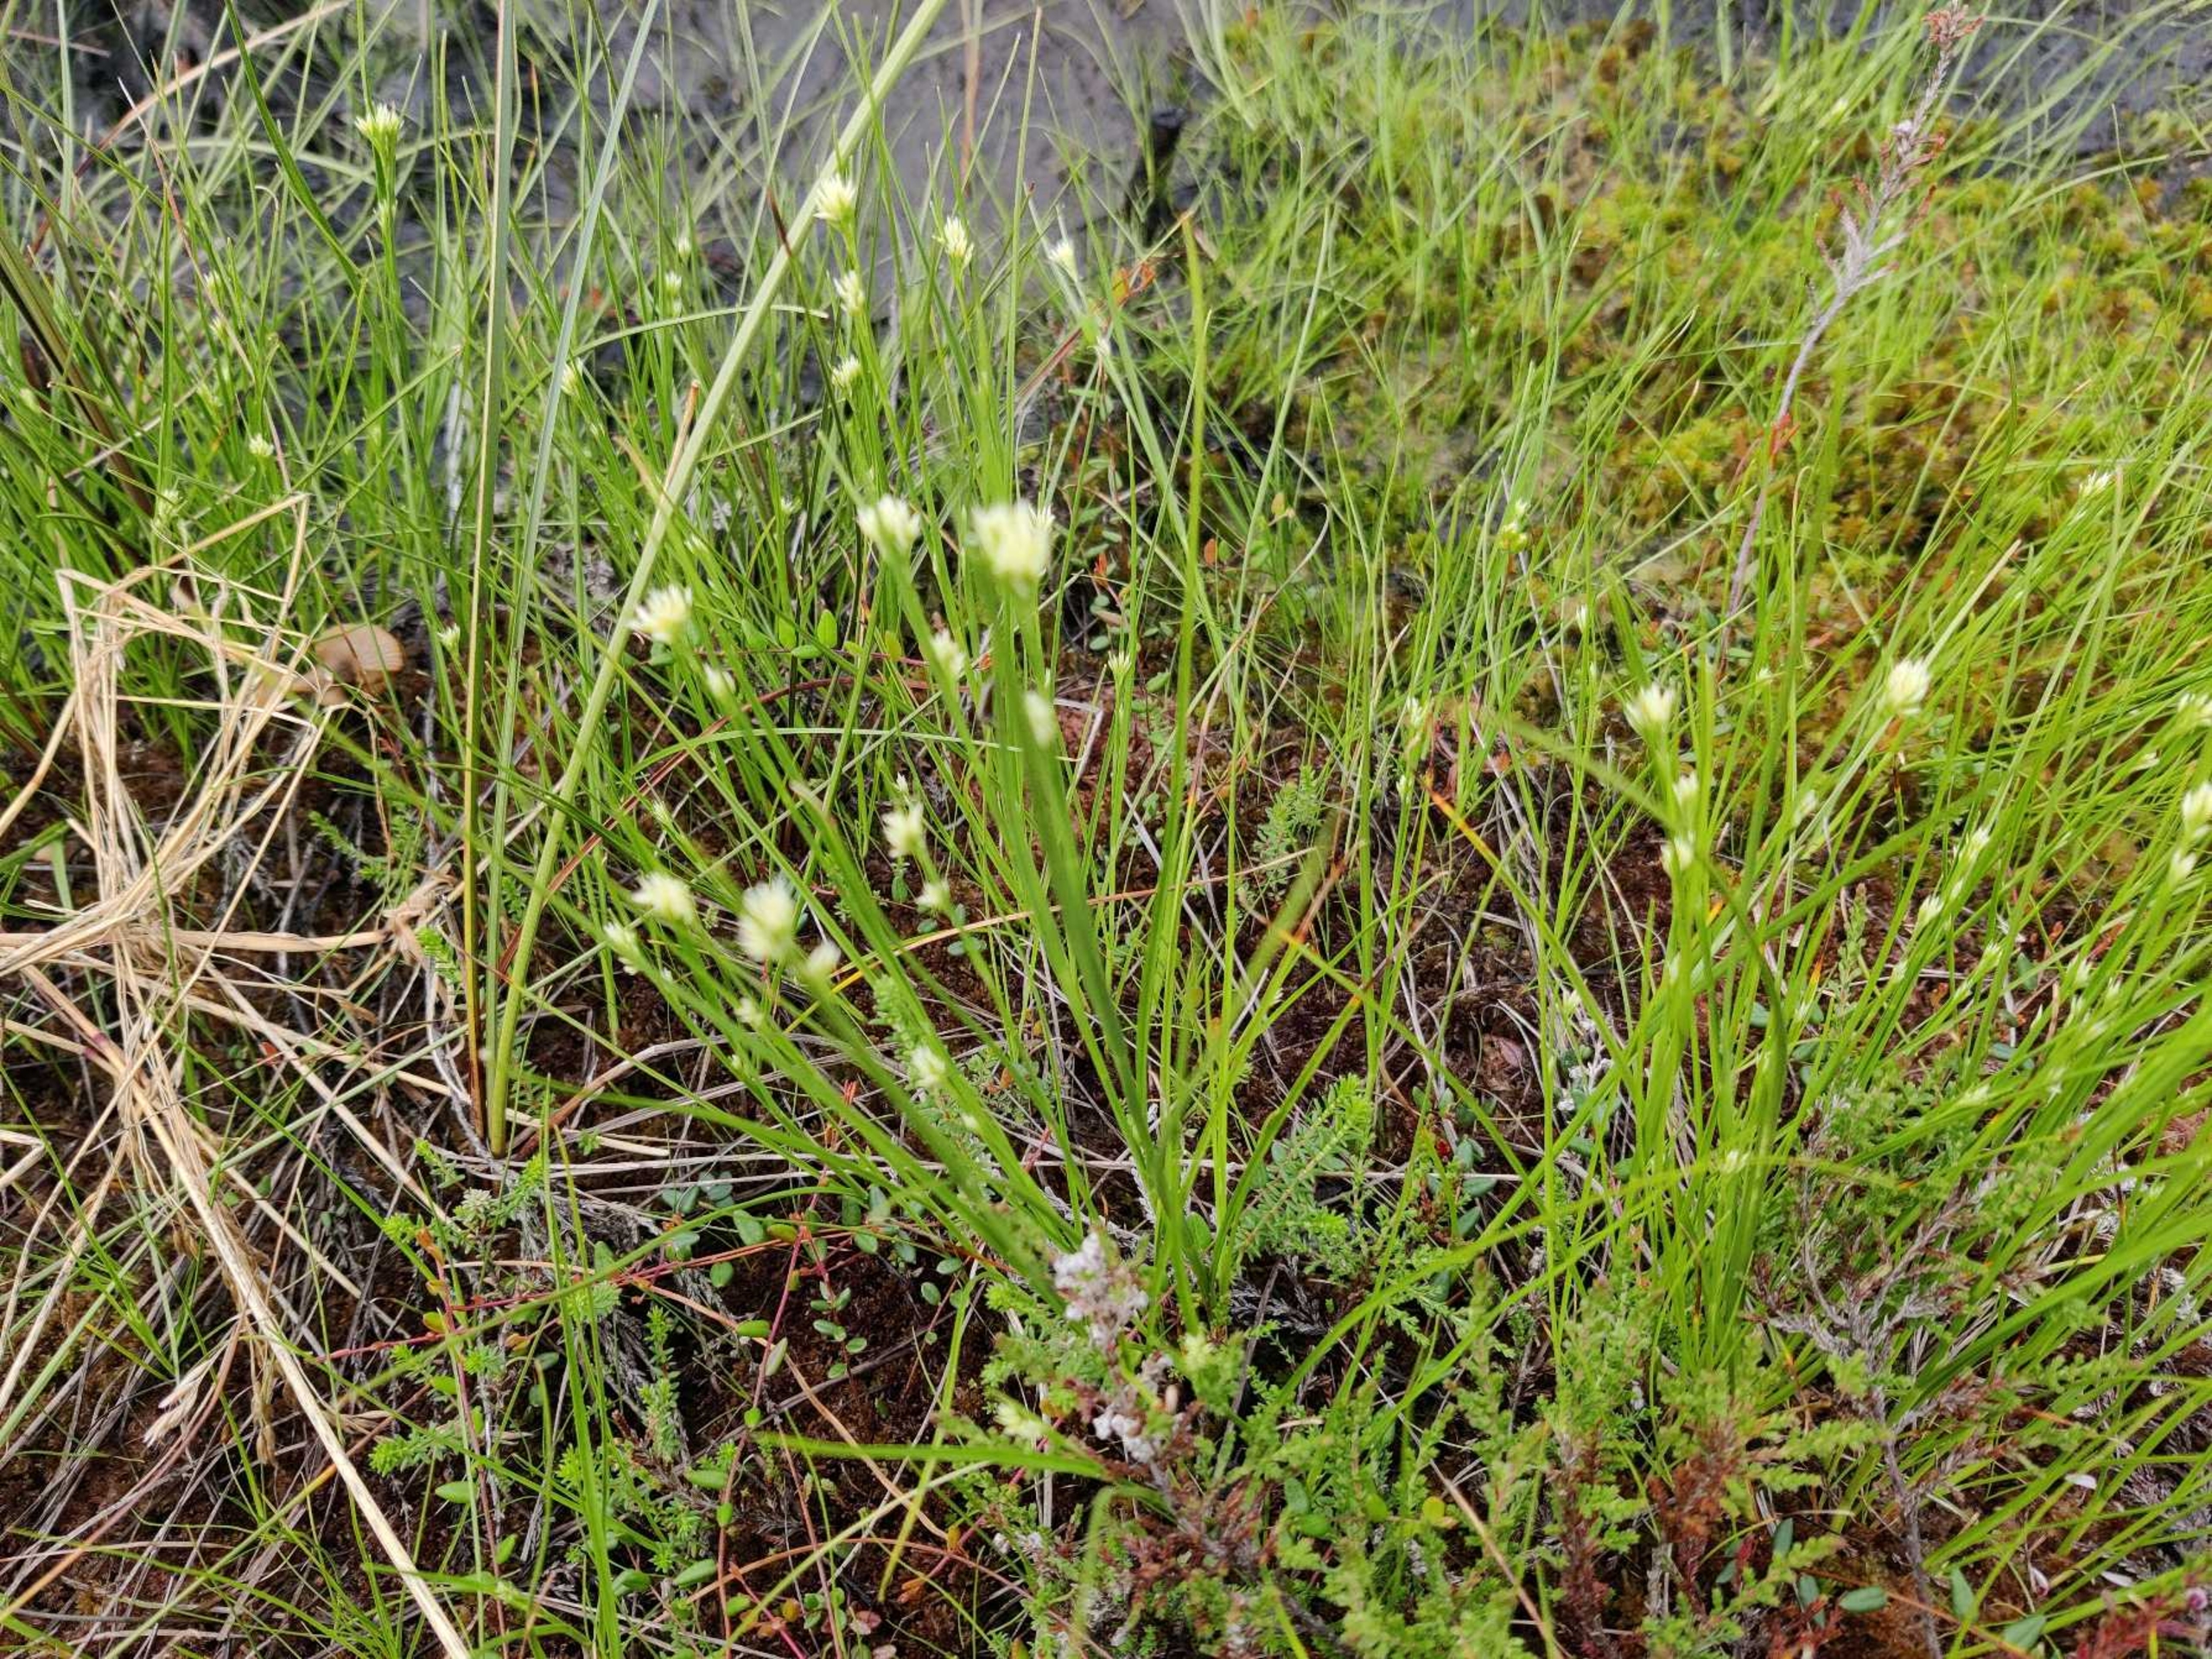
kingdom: Plantae
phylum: Tracheophyta
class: Liliopsida
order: Poales
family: Cyperaceae
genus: Rhynchospora
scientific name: Rhynchospora alba
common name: Hvid næbfrø
